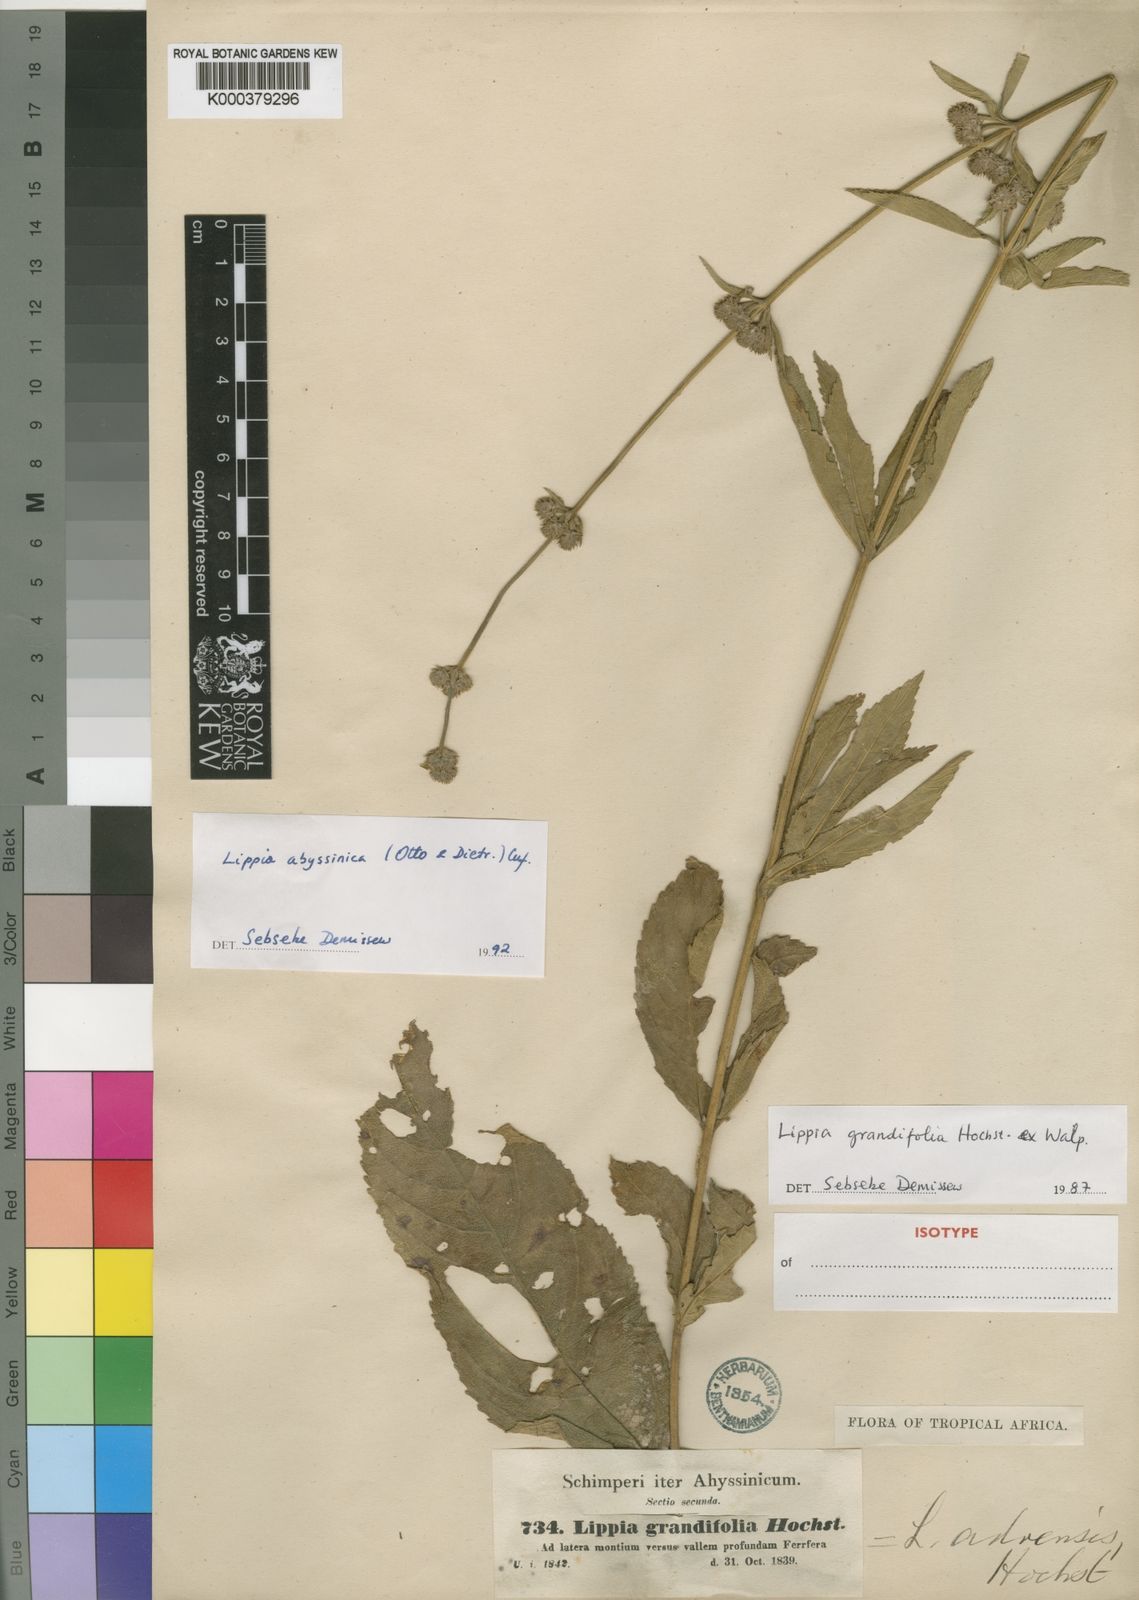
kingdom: Plantae
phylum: Tracheophyta
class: Magnoliopsida
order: Lamiales
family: Verbenaceae
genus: Lippia
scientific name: Lippia
